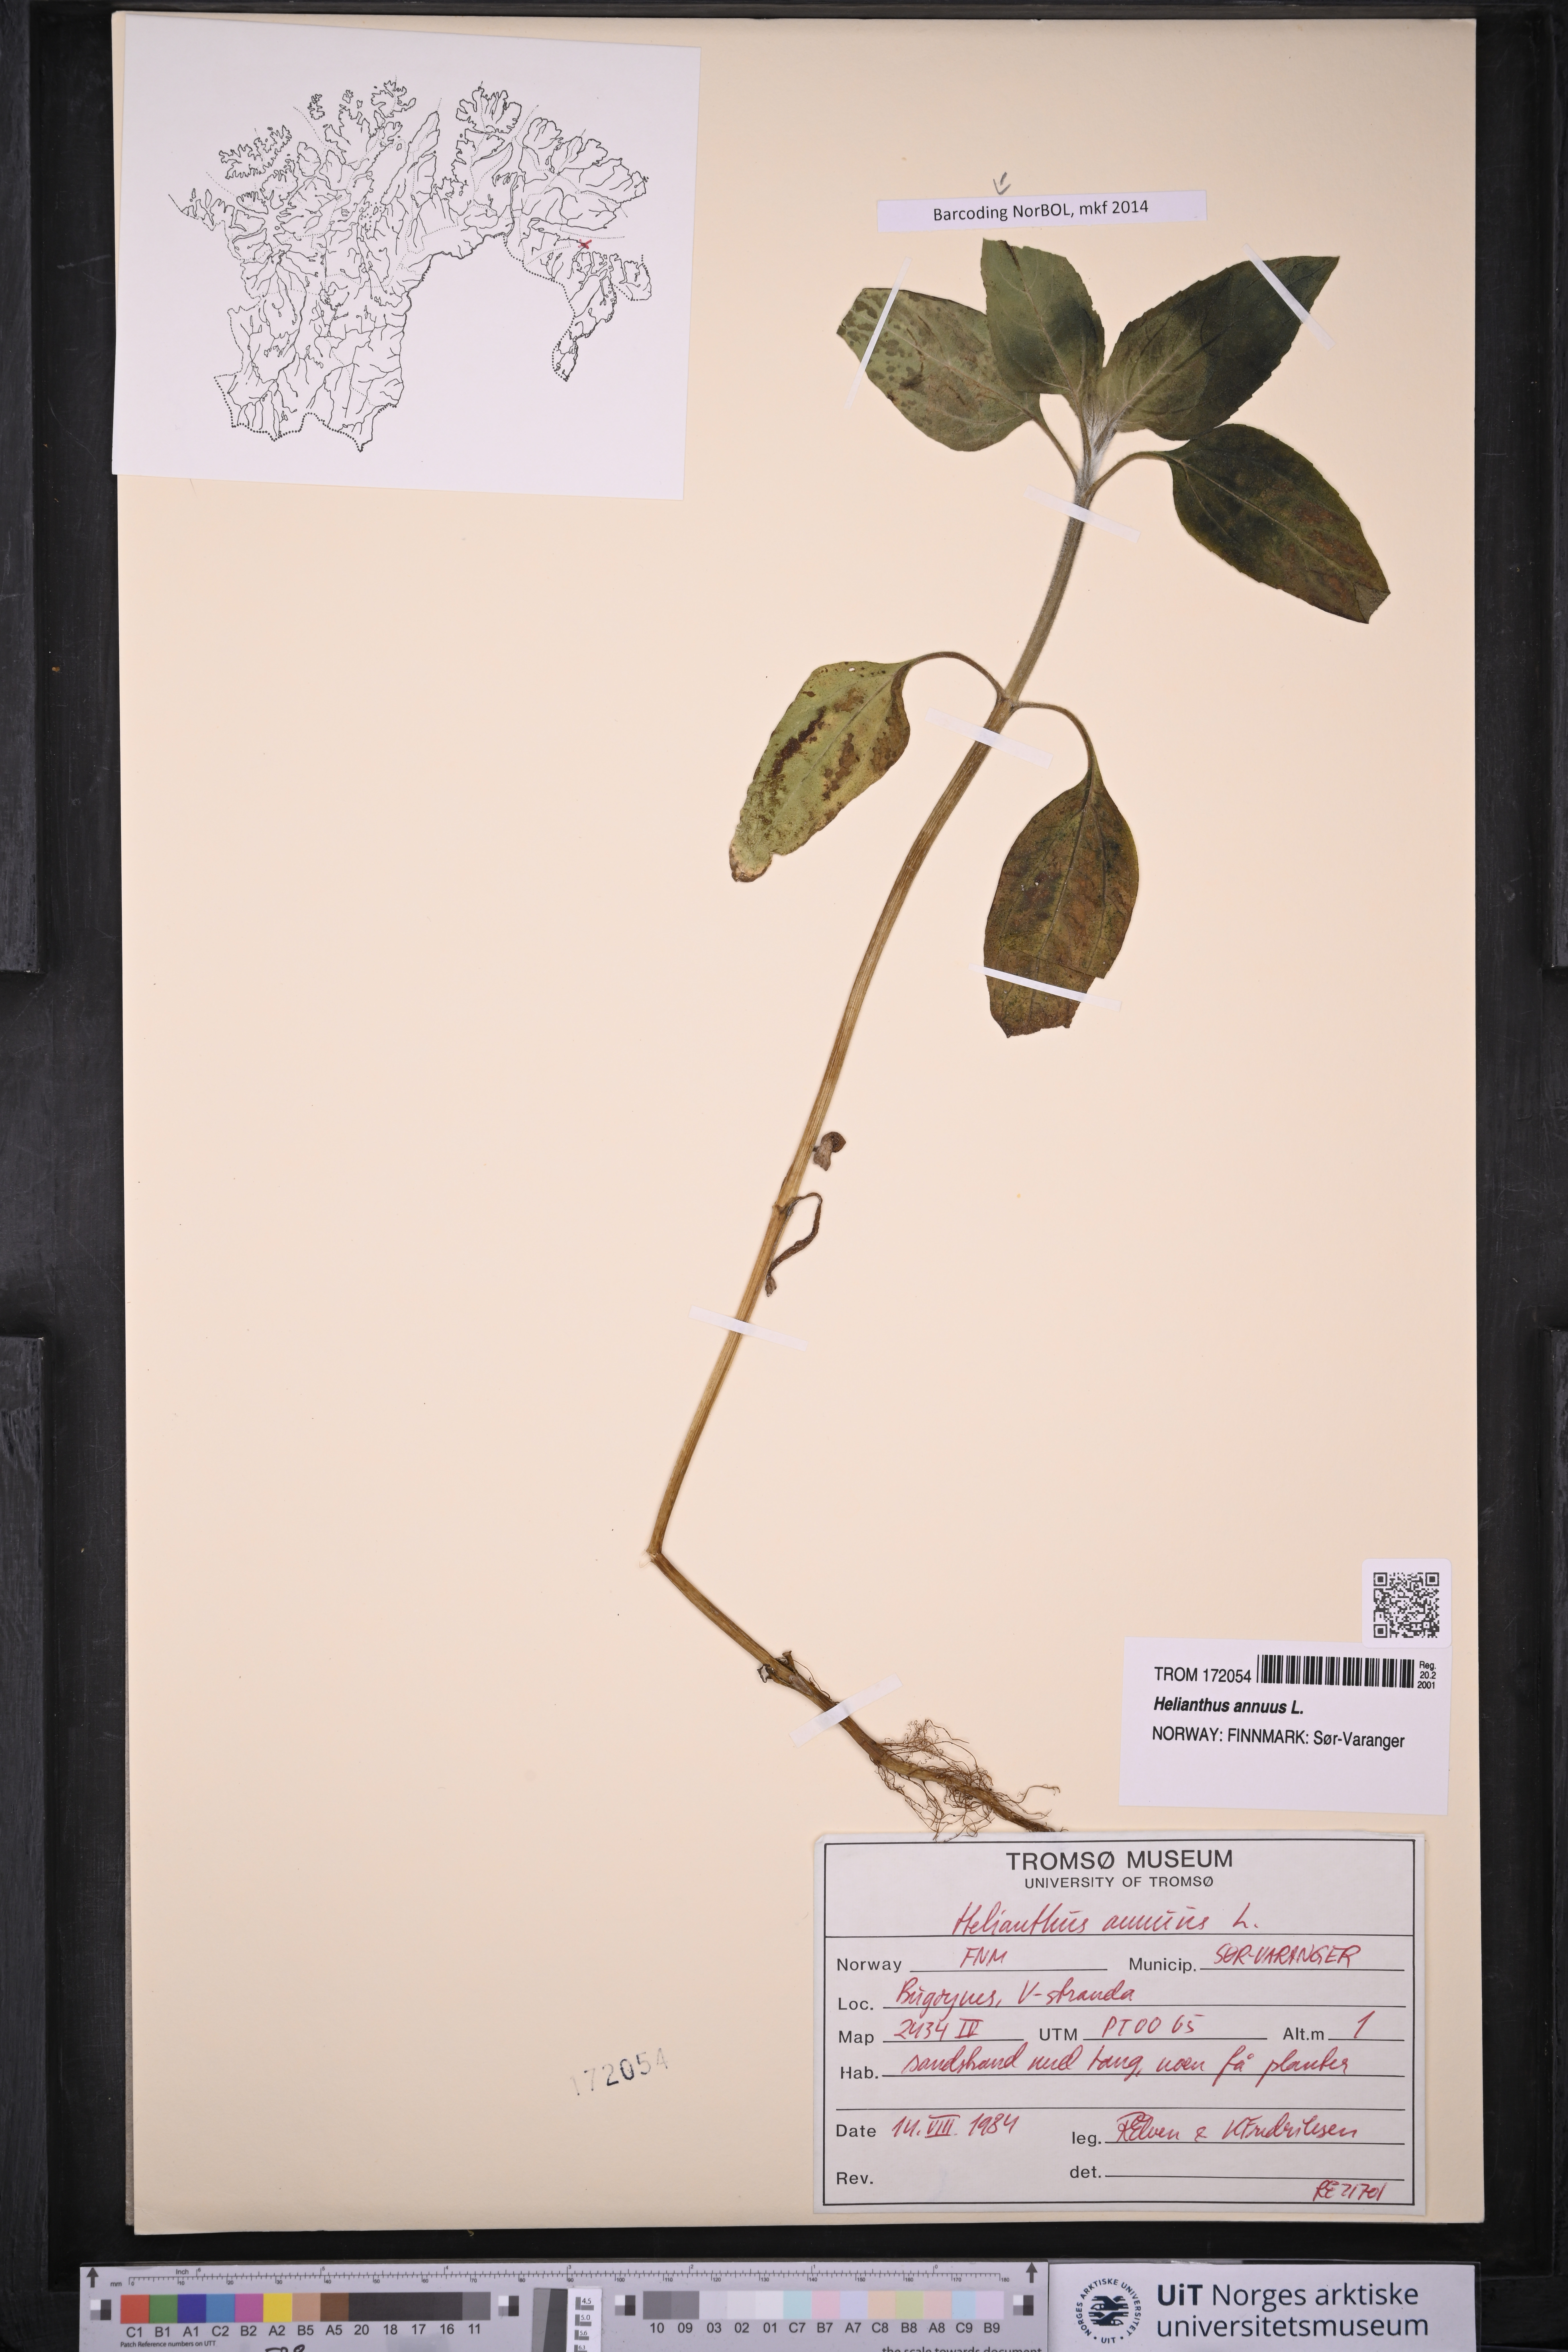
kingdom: Plantae
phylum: Tracheophyta
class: Magnoliopsida
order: Asterales
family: Asteraceae
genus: Helianthus
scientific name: Helianthus annuus
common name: Sunflower
